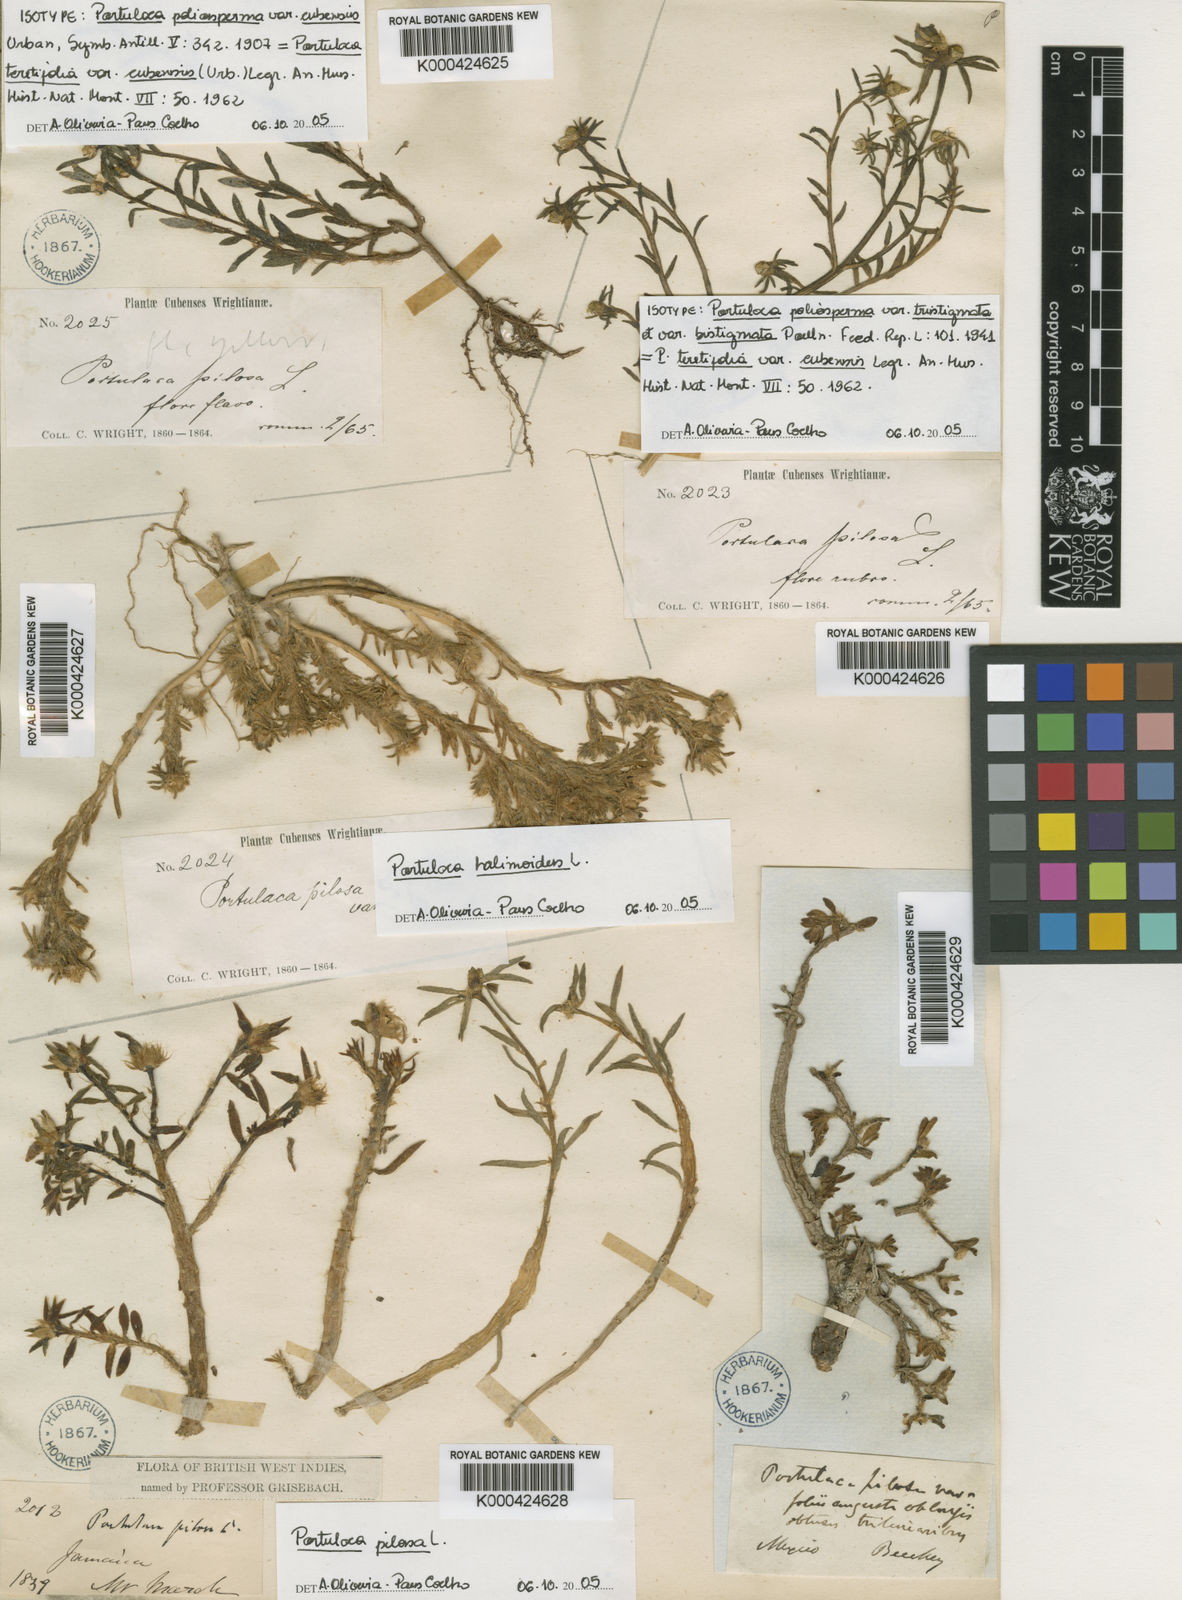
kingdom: Plantae
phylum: Tracheophyta
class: Magnoliopsida
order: Caryophyllales
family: Portulacaceae
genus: Portulaca
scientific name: Portulaca teretifolia
